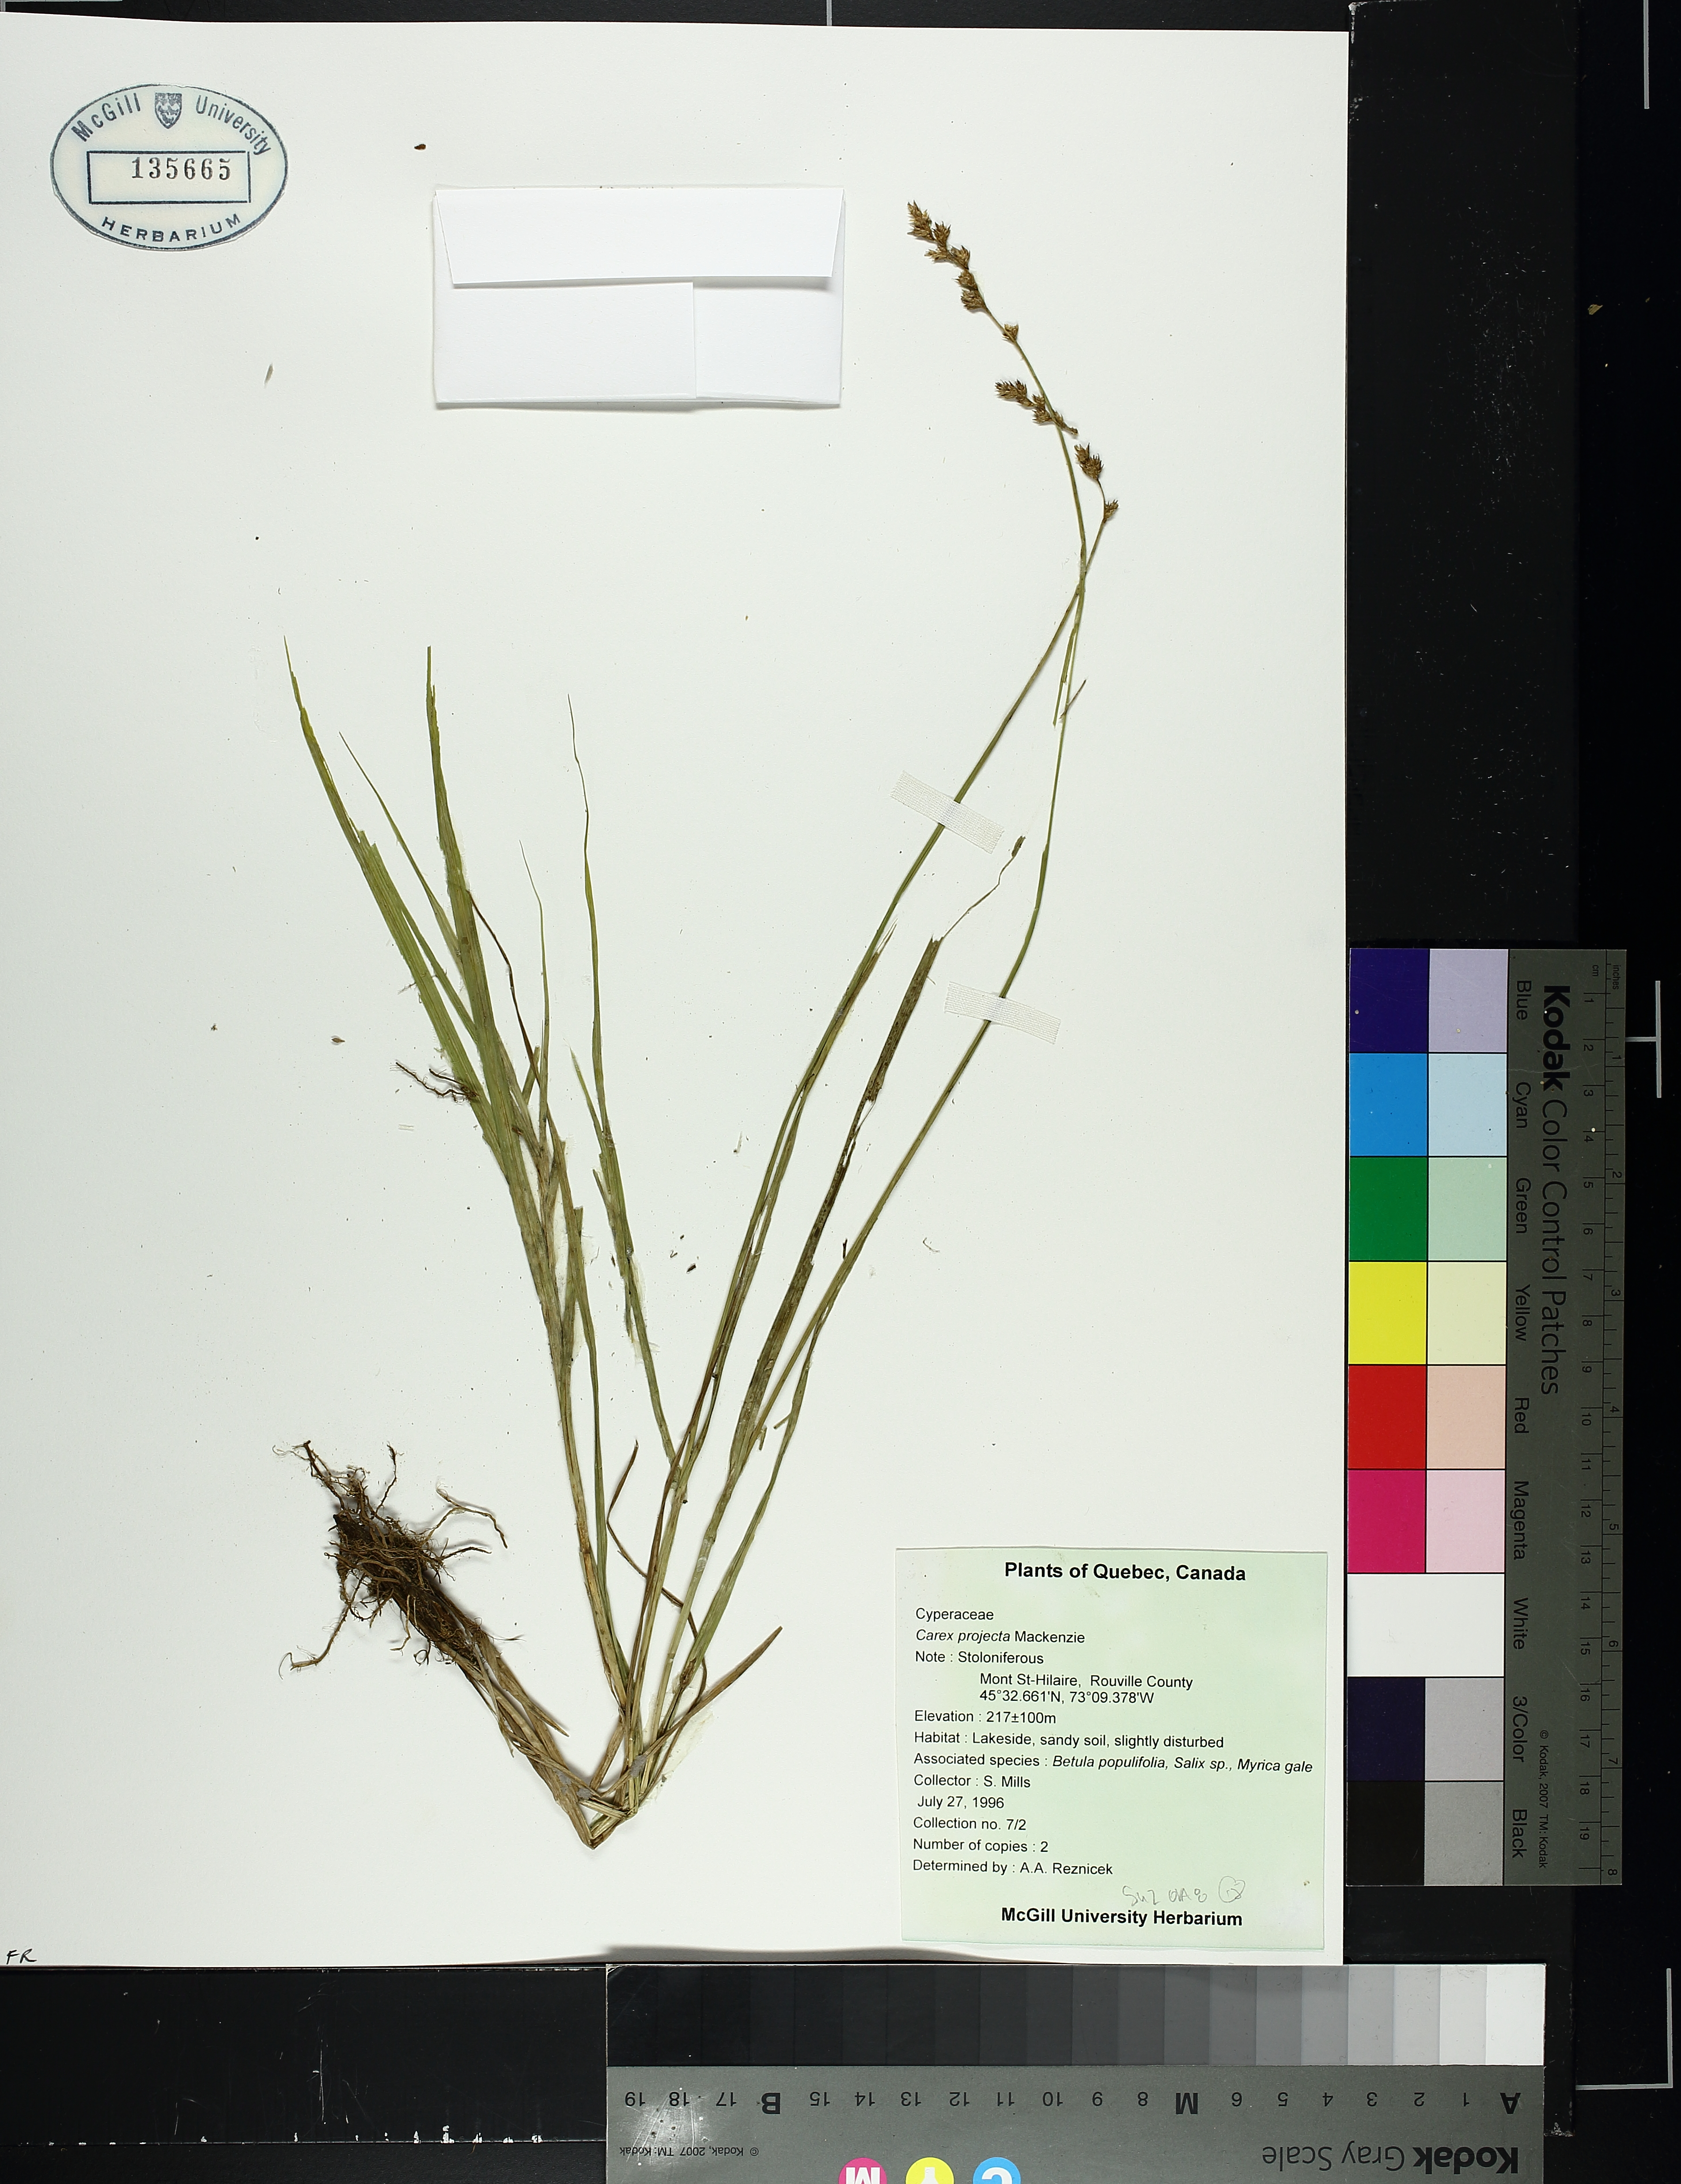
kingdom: Plantae
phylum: Tracheophyta
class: Liliopsida
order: Poales
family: Cyperaceae
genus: Carex
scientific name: Carex projecta
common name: Loose-headed oval sedge
